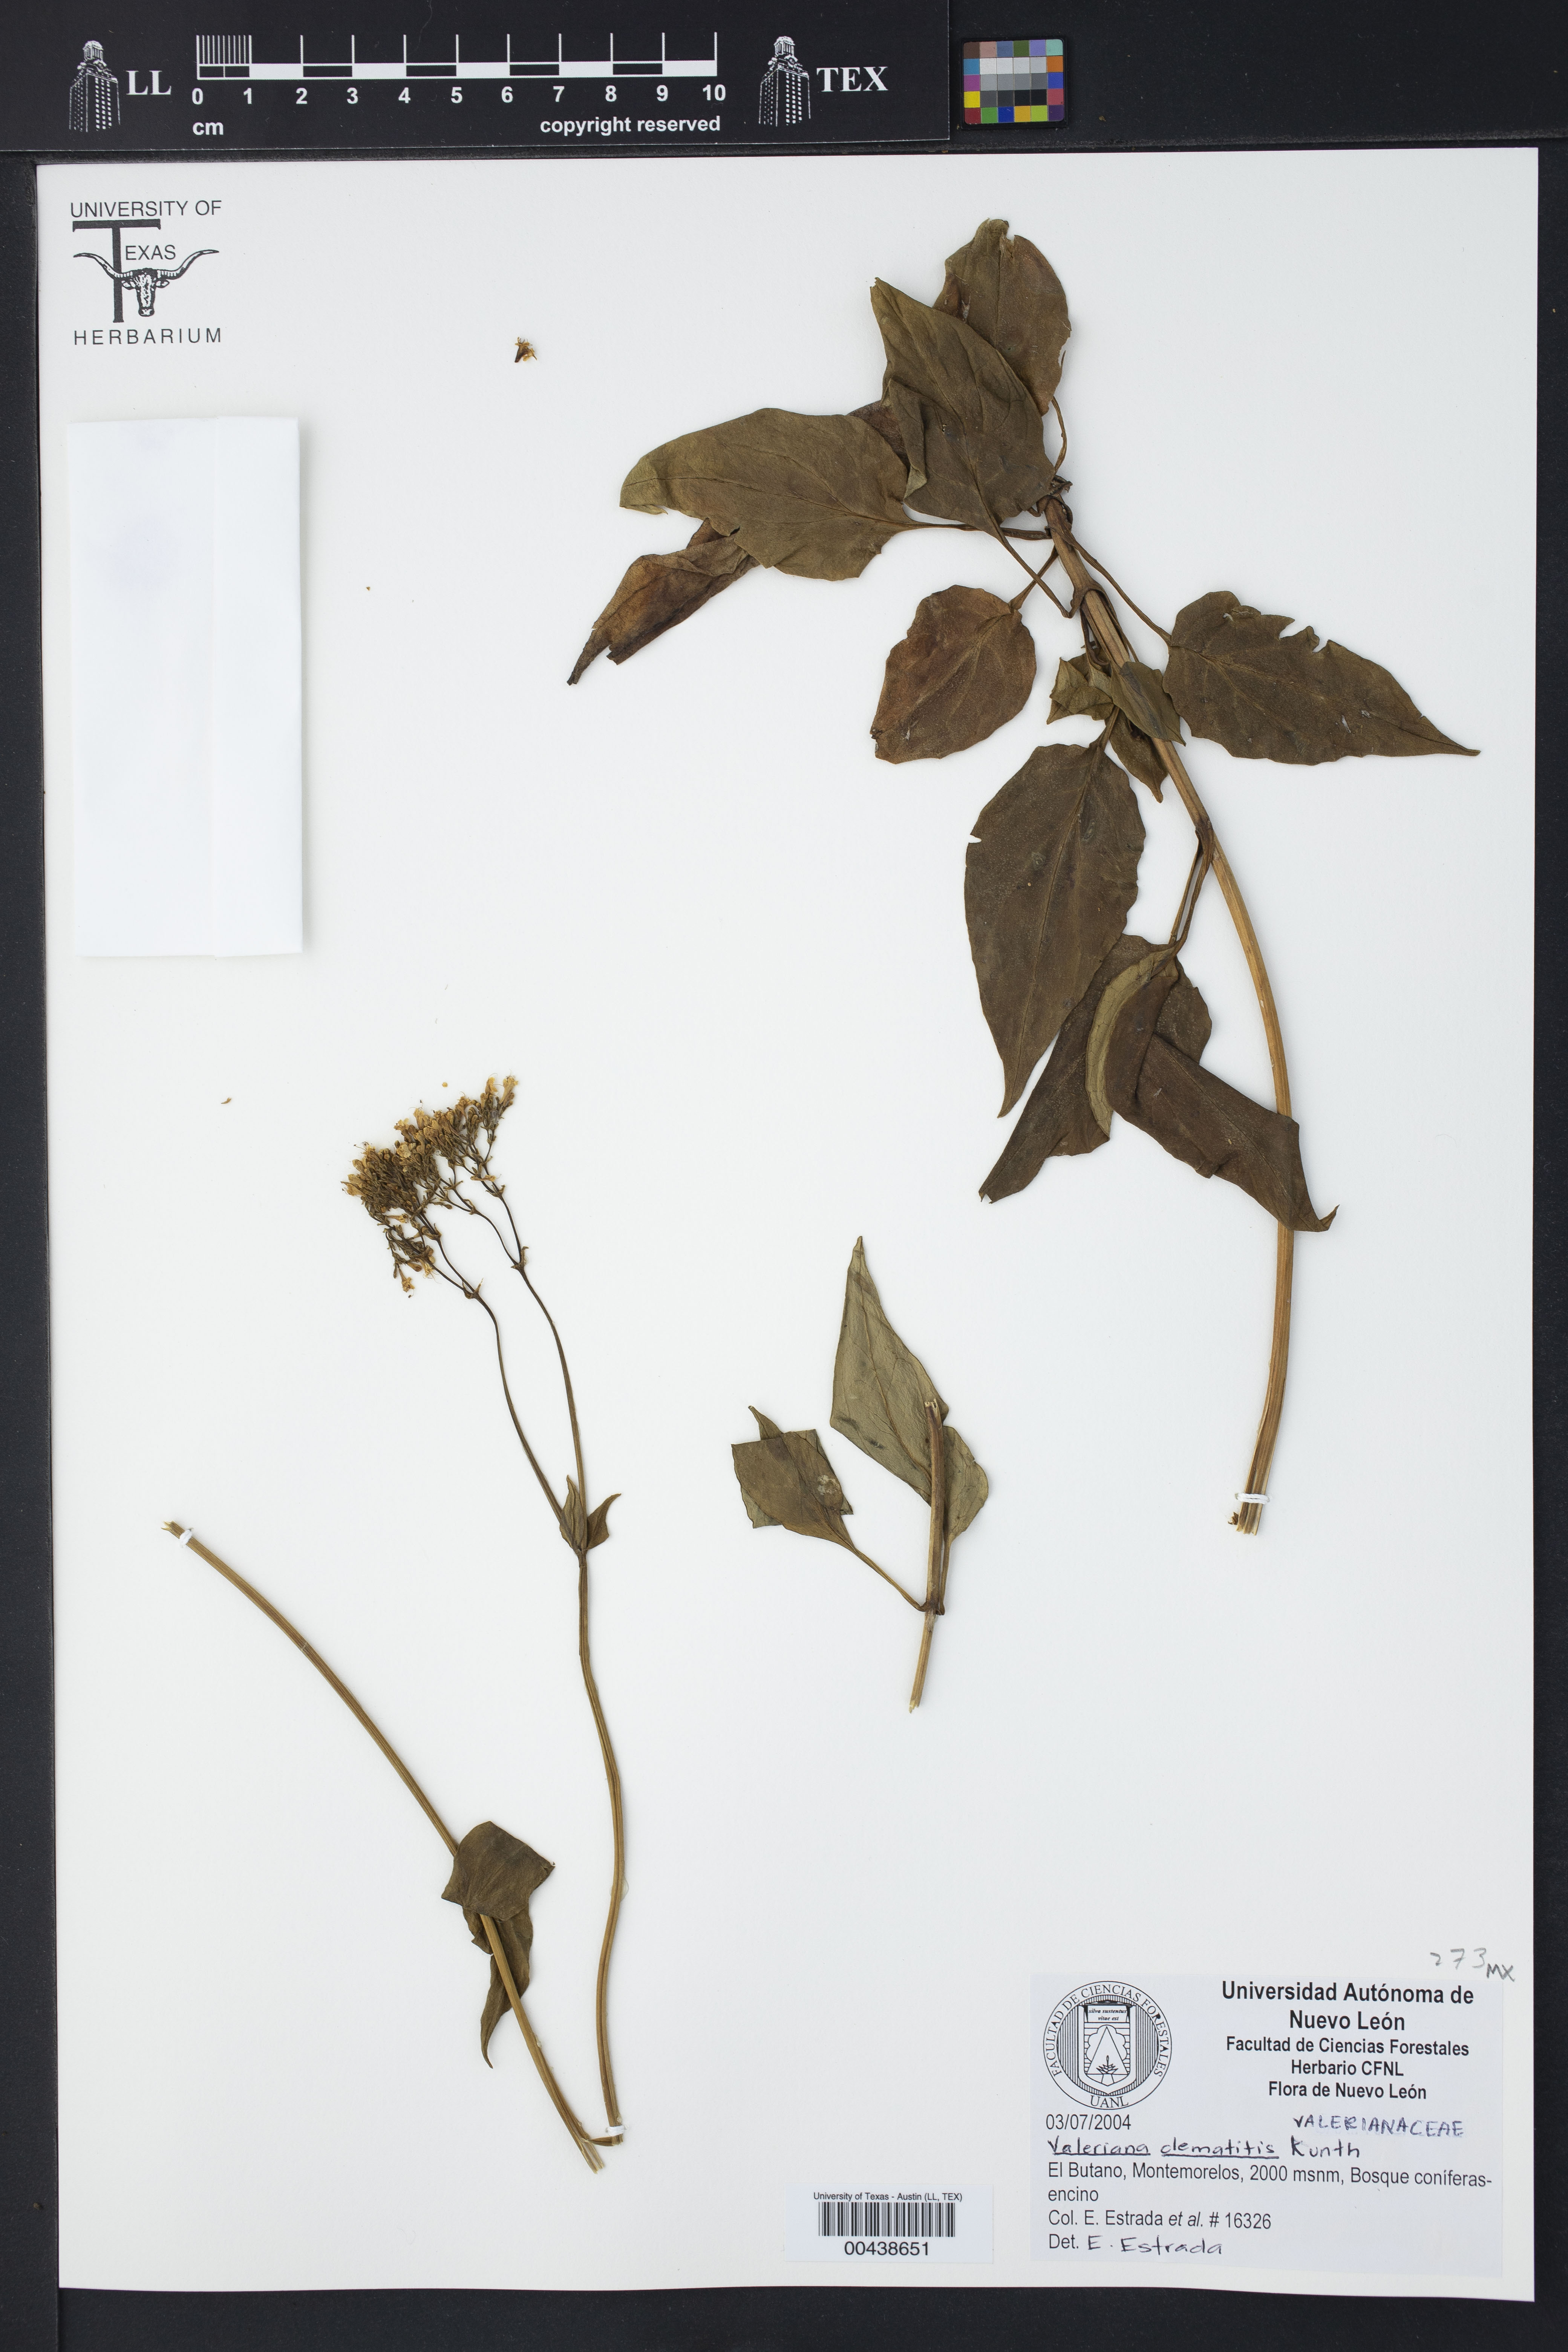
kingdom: Plantae
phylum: Tracheophyta
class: Magnoliopsida
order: Dipsacales
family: Caprifoliaceae
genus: Valeriana
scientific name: Valeriana clematitis
